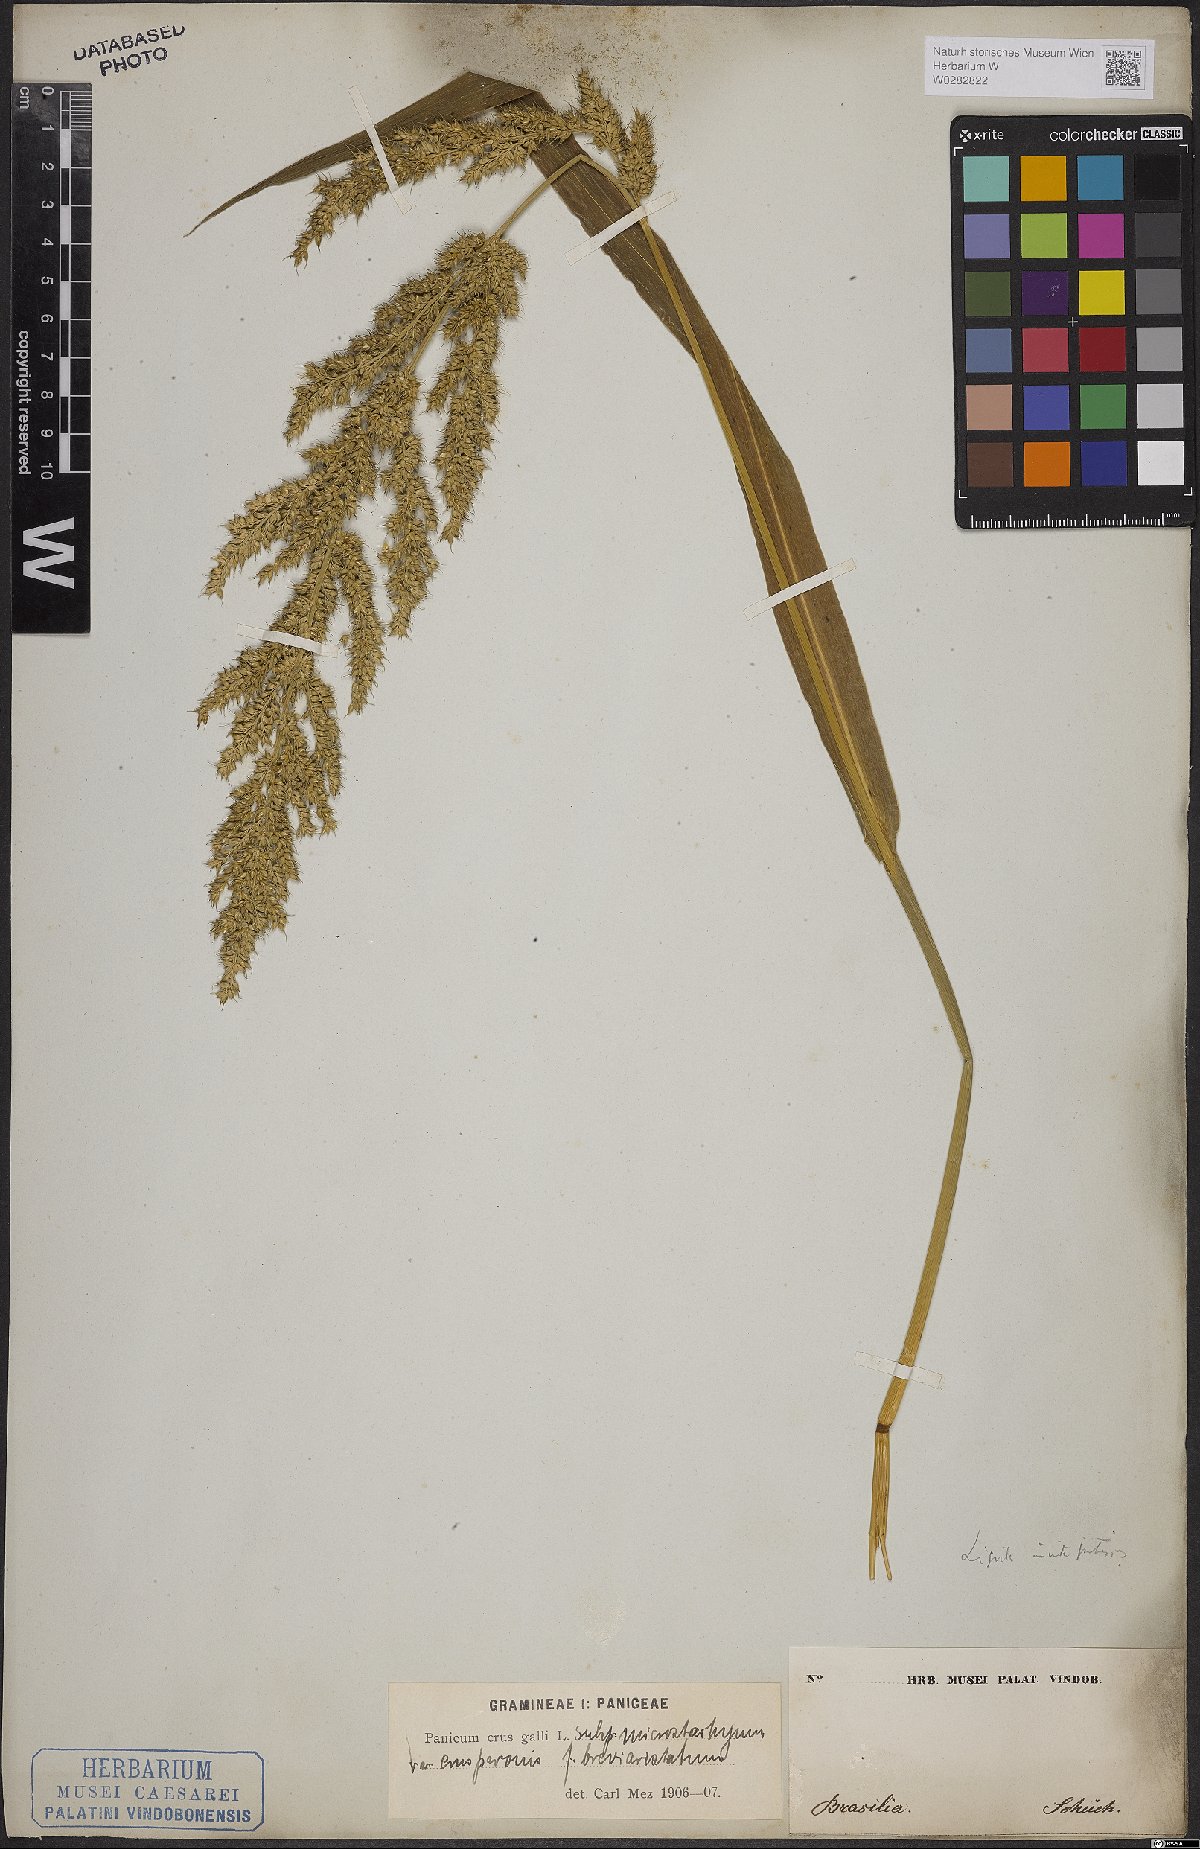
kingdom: Plantae
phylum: Tracheophyta
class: Liliopsida
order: Poales
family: Poaceae
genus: Echinochloa
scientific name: Echinochloa crus-galli
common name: Cockspur
